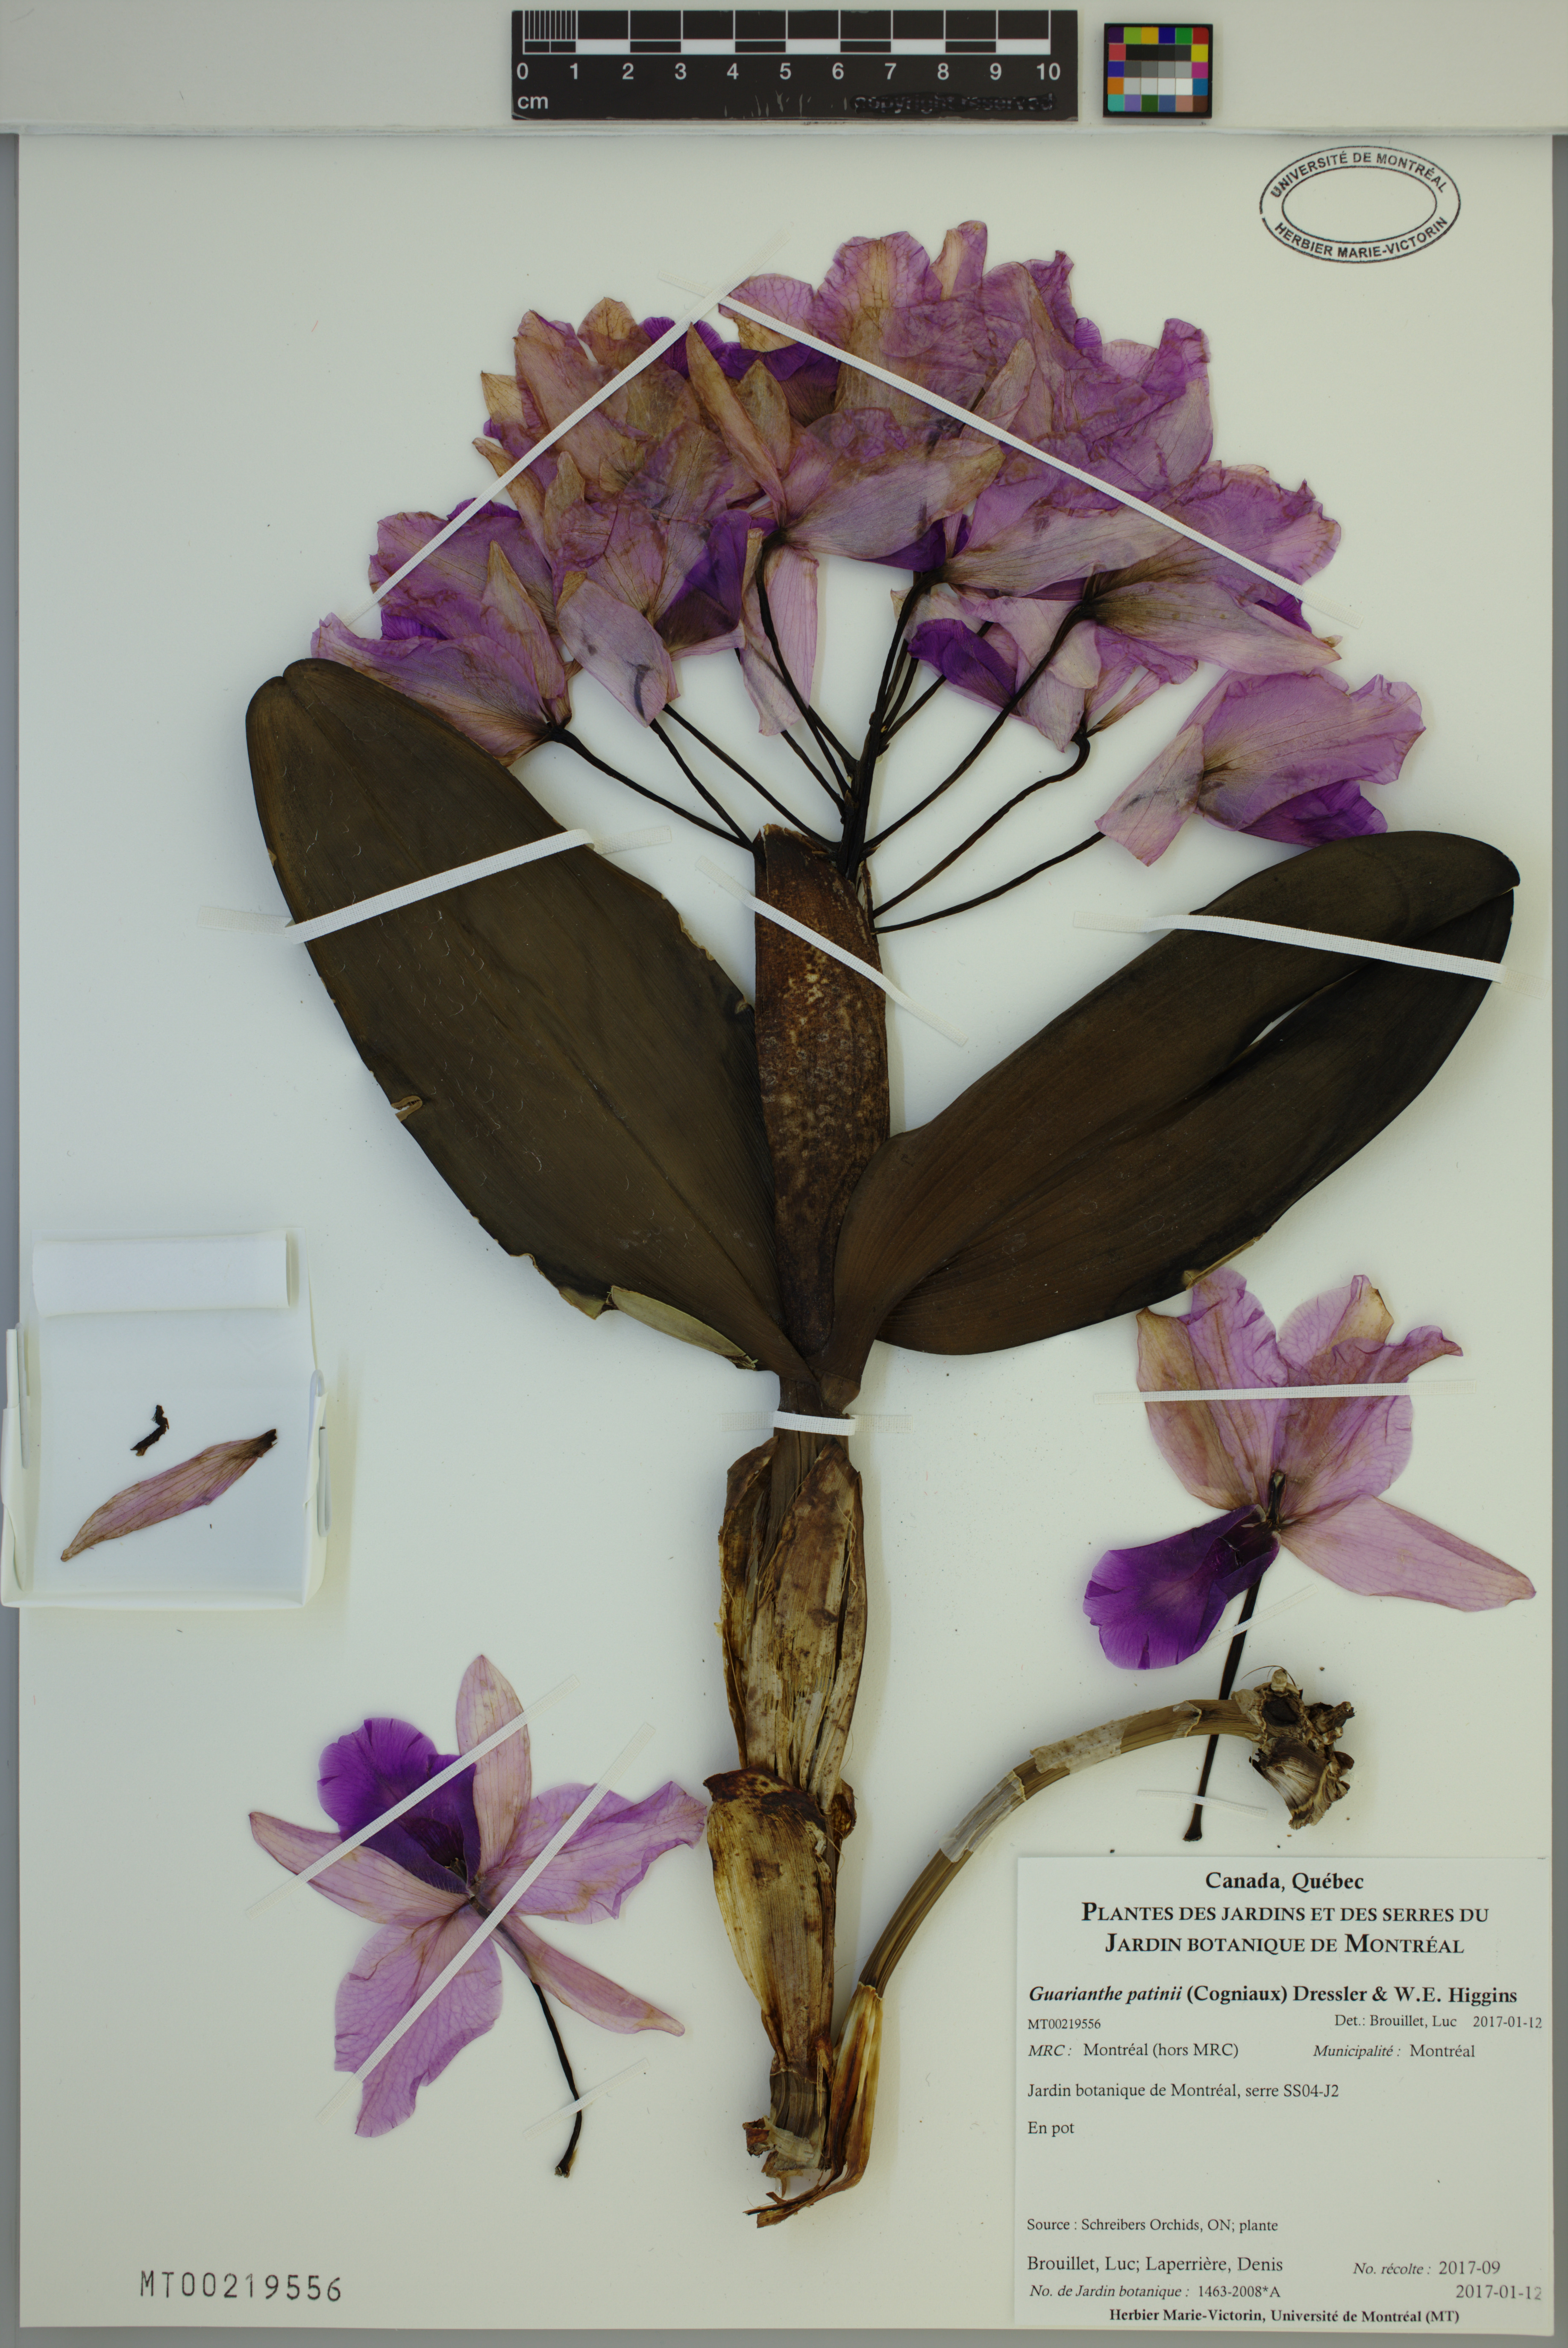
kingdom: Plantae
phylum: Tracheophyta
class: Liliopsida
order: Asparagales
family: Orchidaceae
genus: Guarianthe
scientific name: Guarianthe hennisiana
